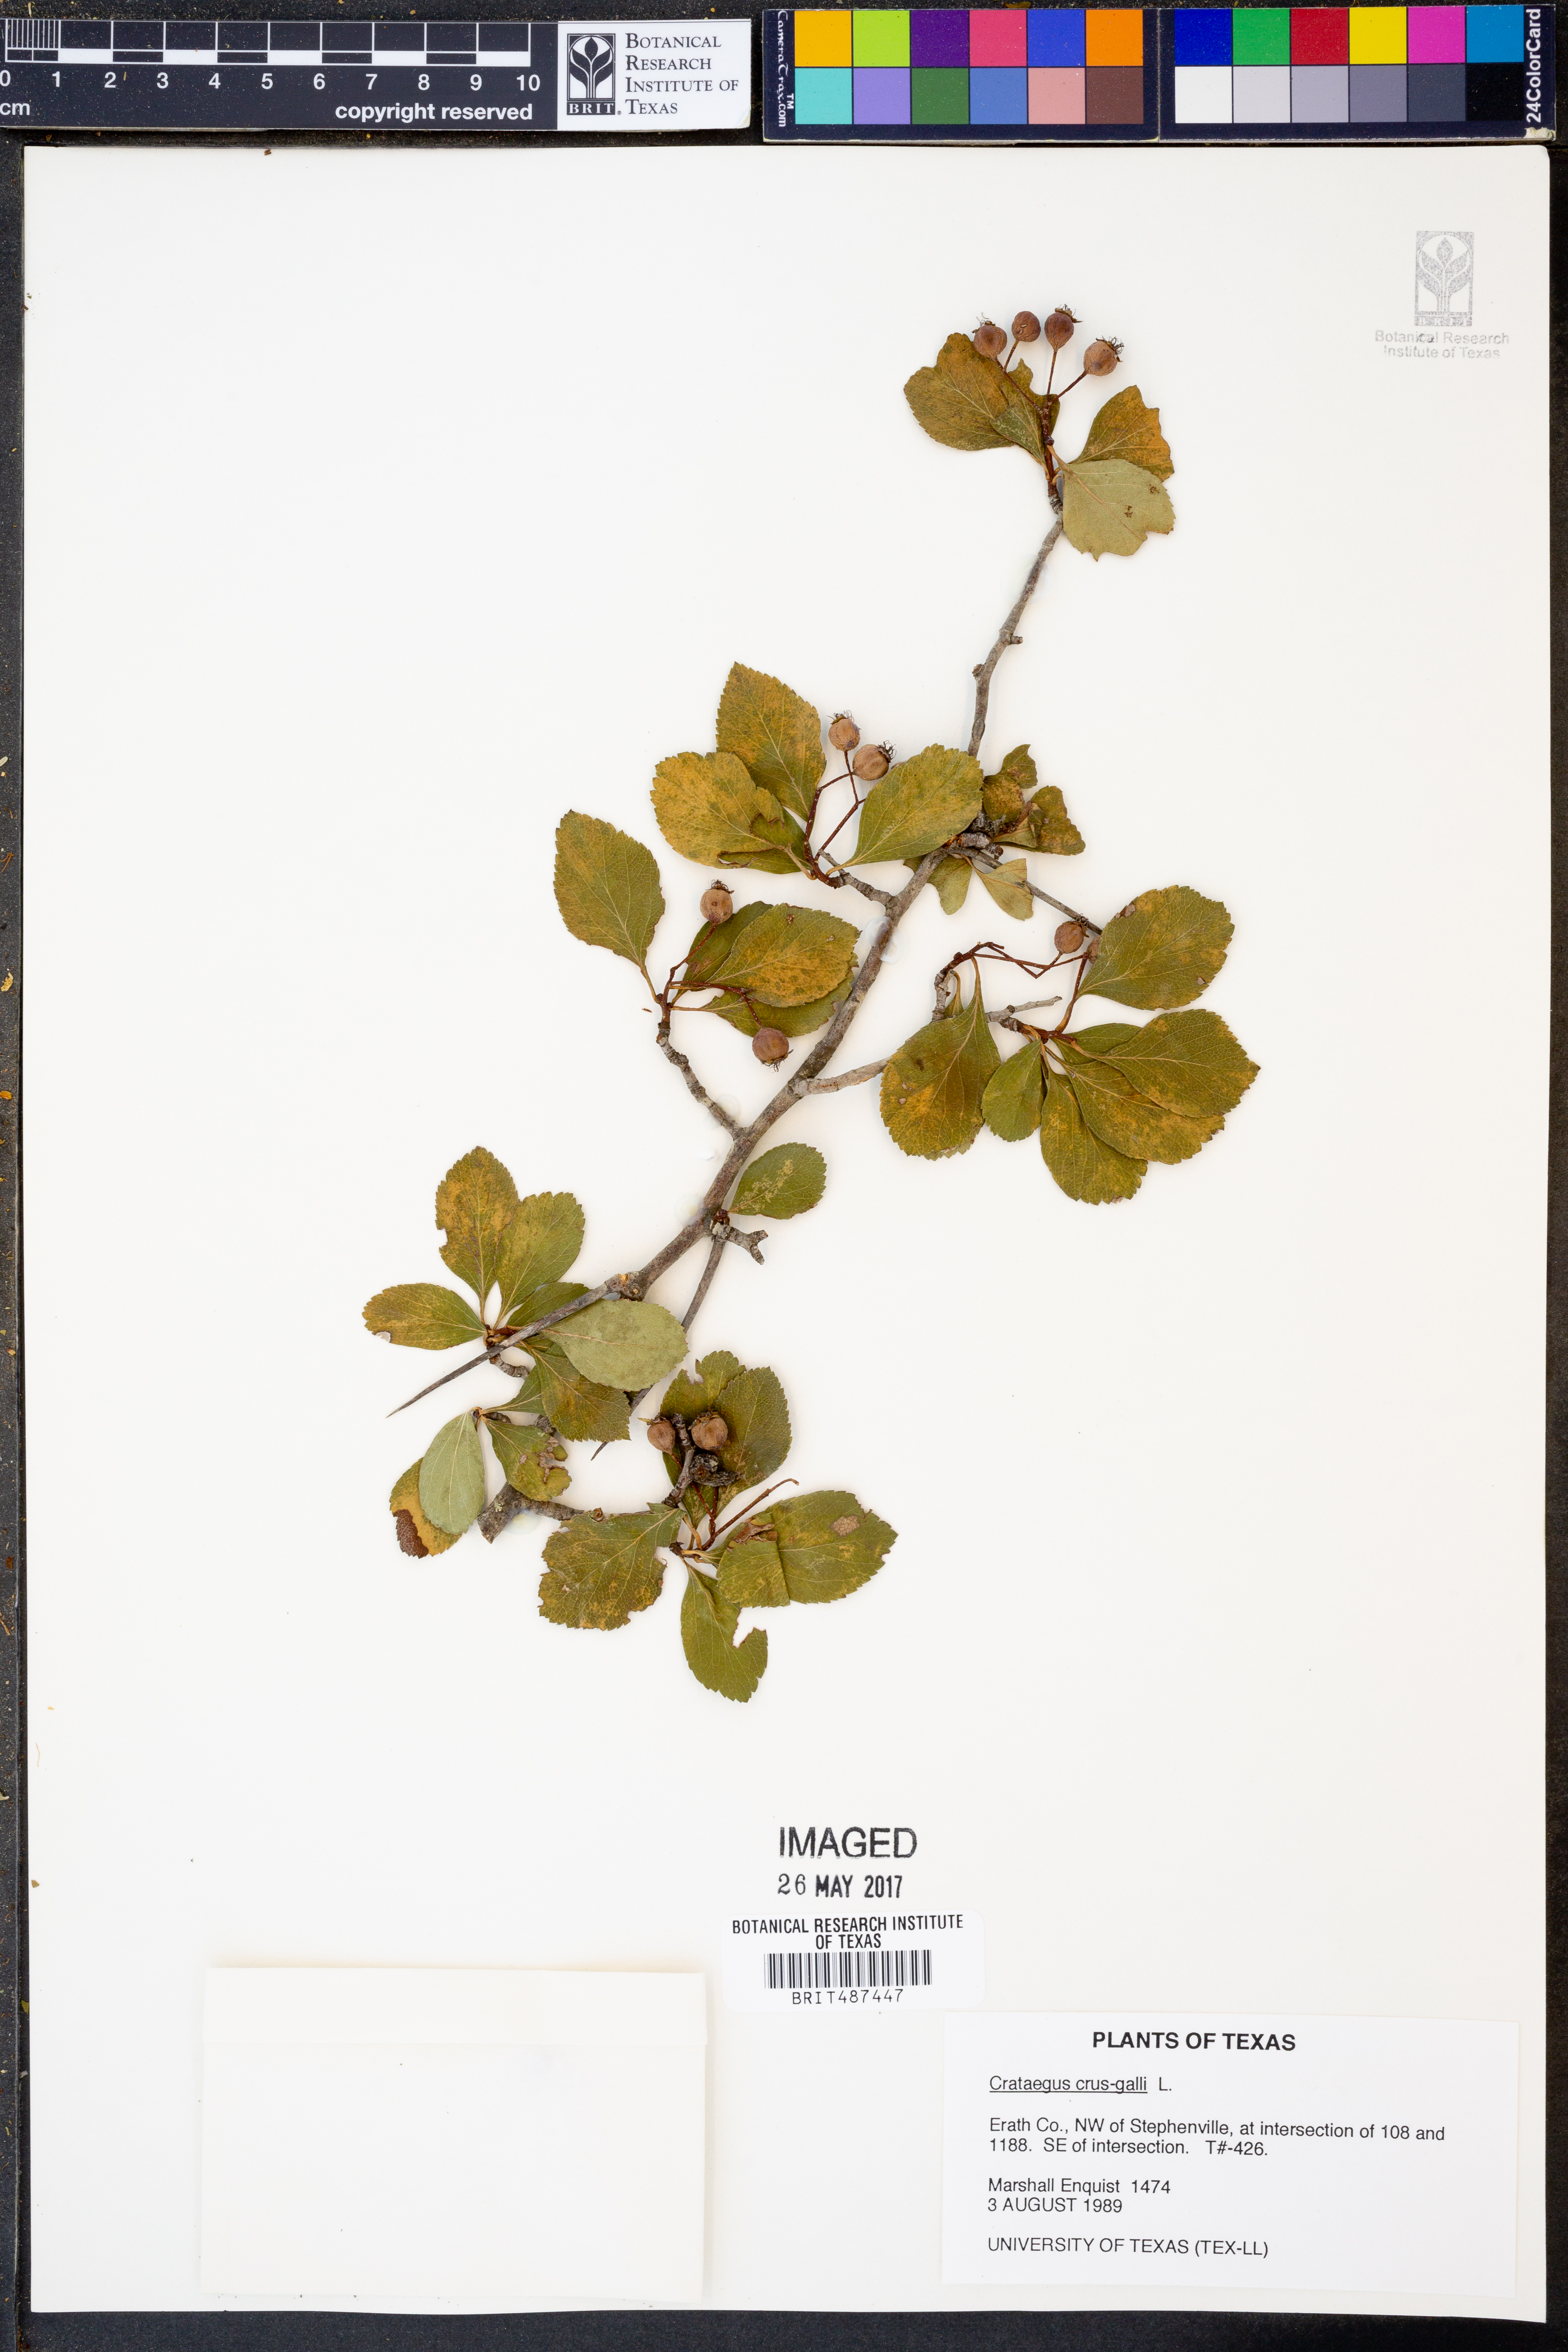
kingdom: Plantae
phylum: Tracheophyta
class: Magnoliopsida
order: Rosales
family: Rosaceae
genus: Crataegus
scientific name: Crataegus crus-galli
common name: Cockspurthorn
